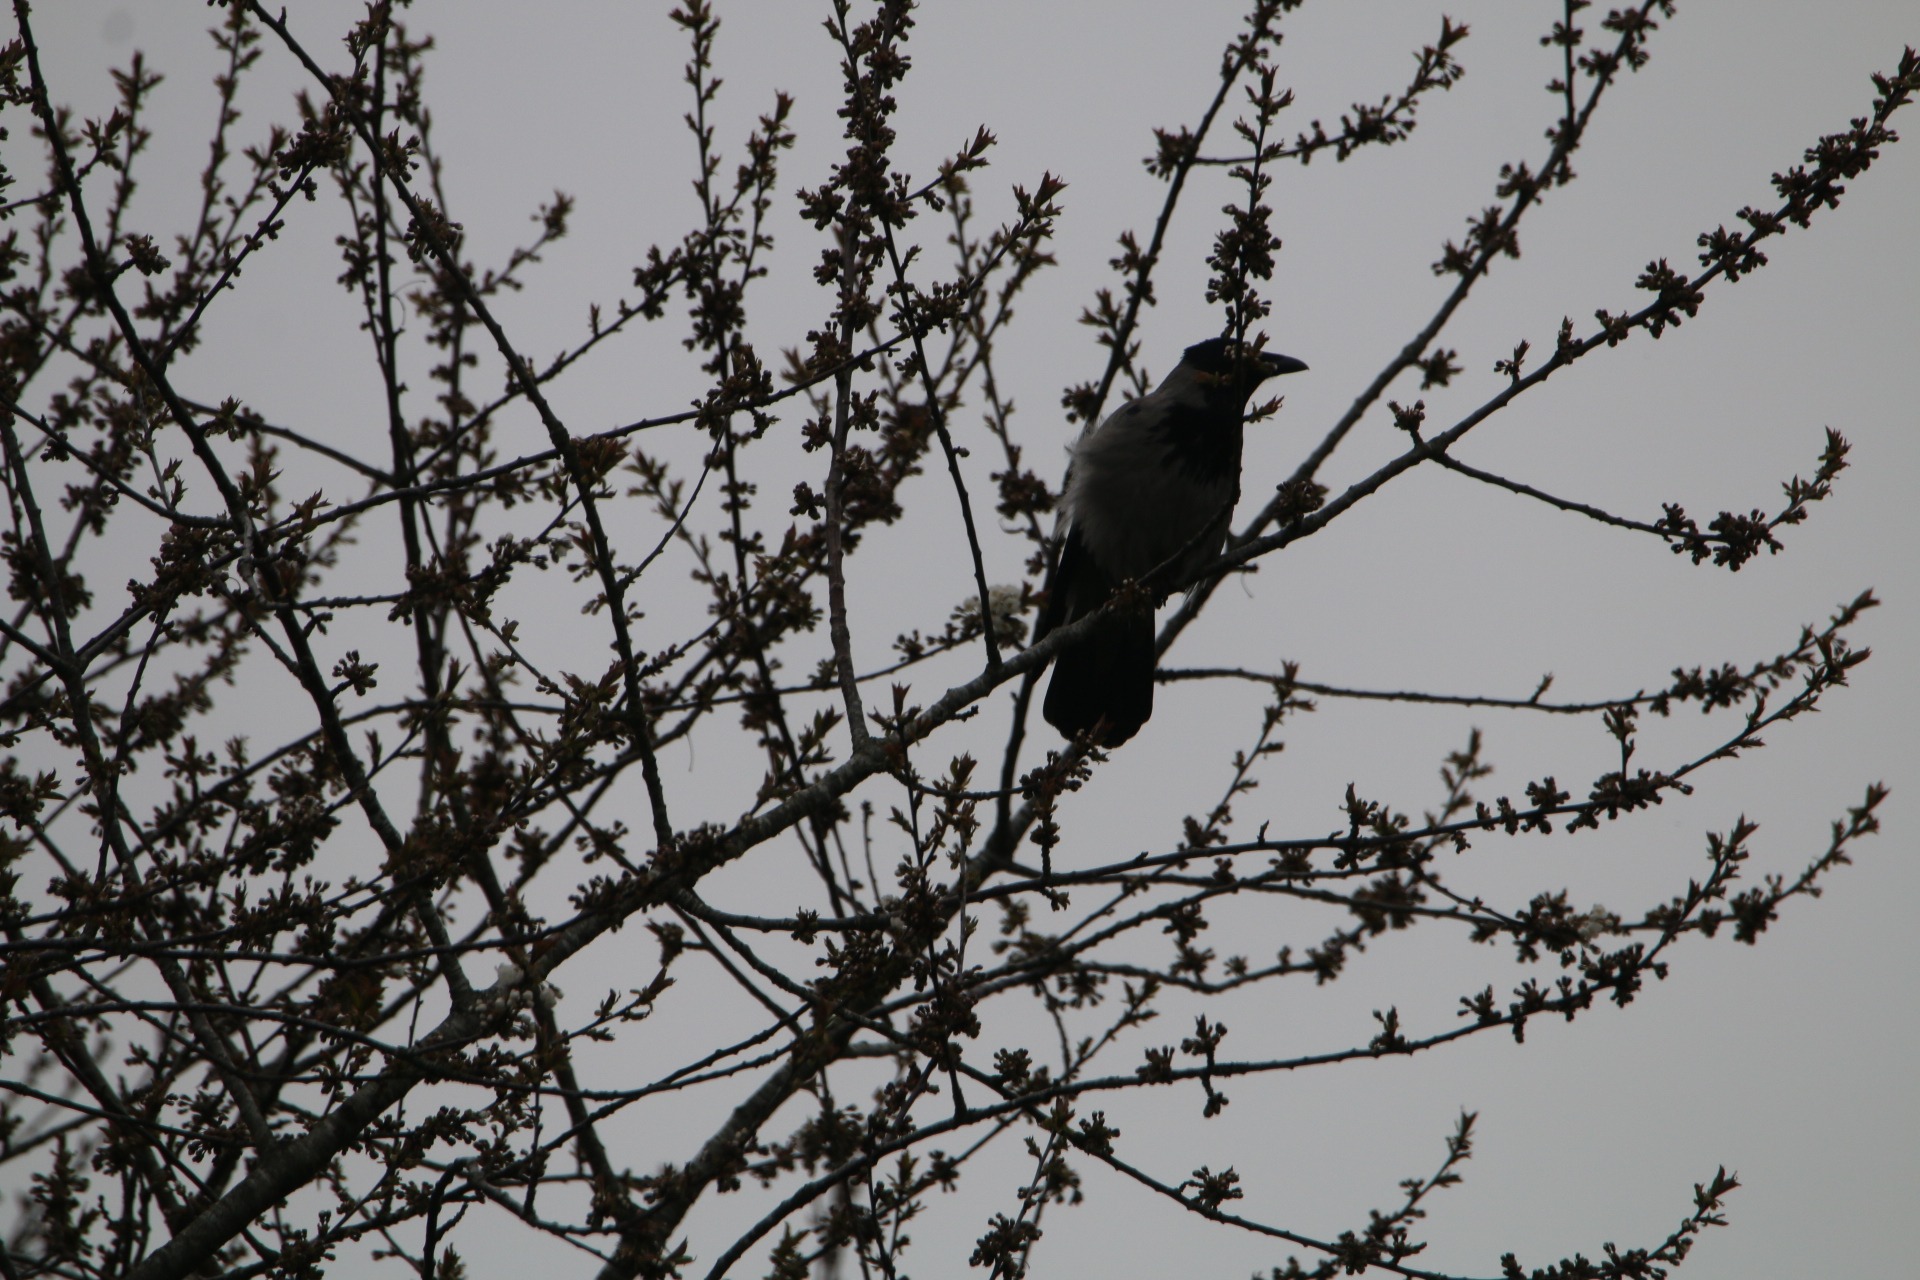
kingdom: Animalia
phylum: Chordata
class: Aves
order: Passeriformes
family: Corvidae
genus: Corvus
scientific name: Corvus cornix
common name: Gråkrage
